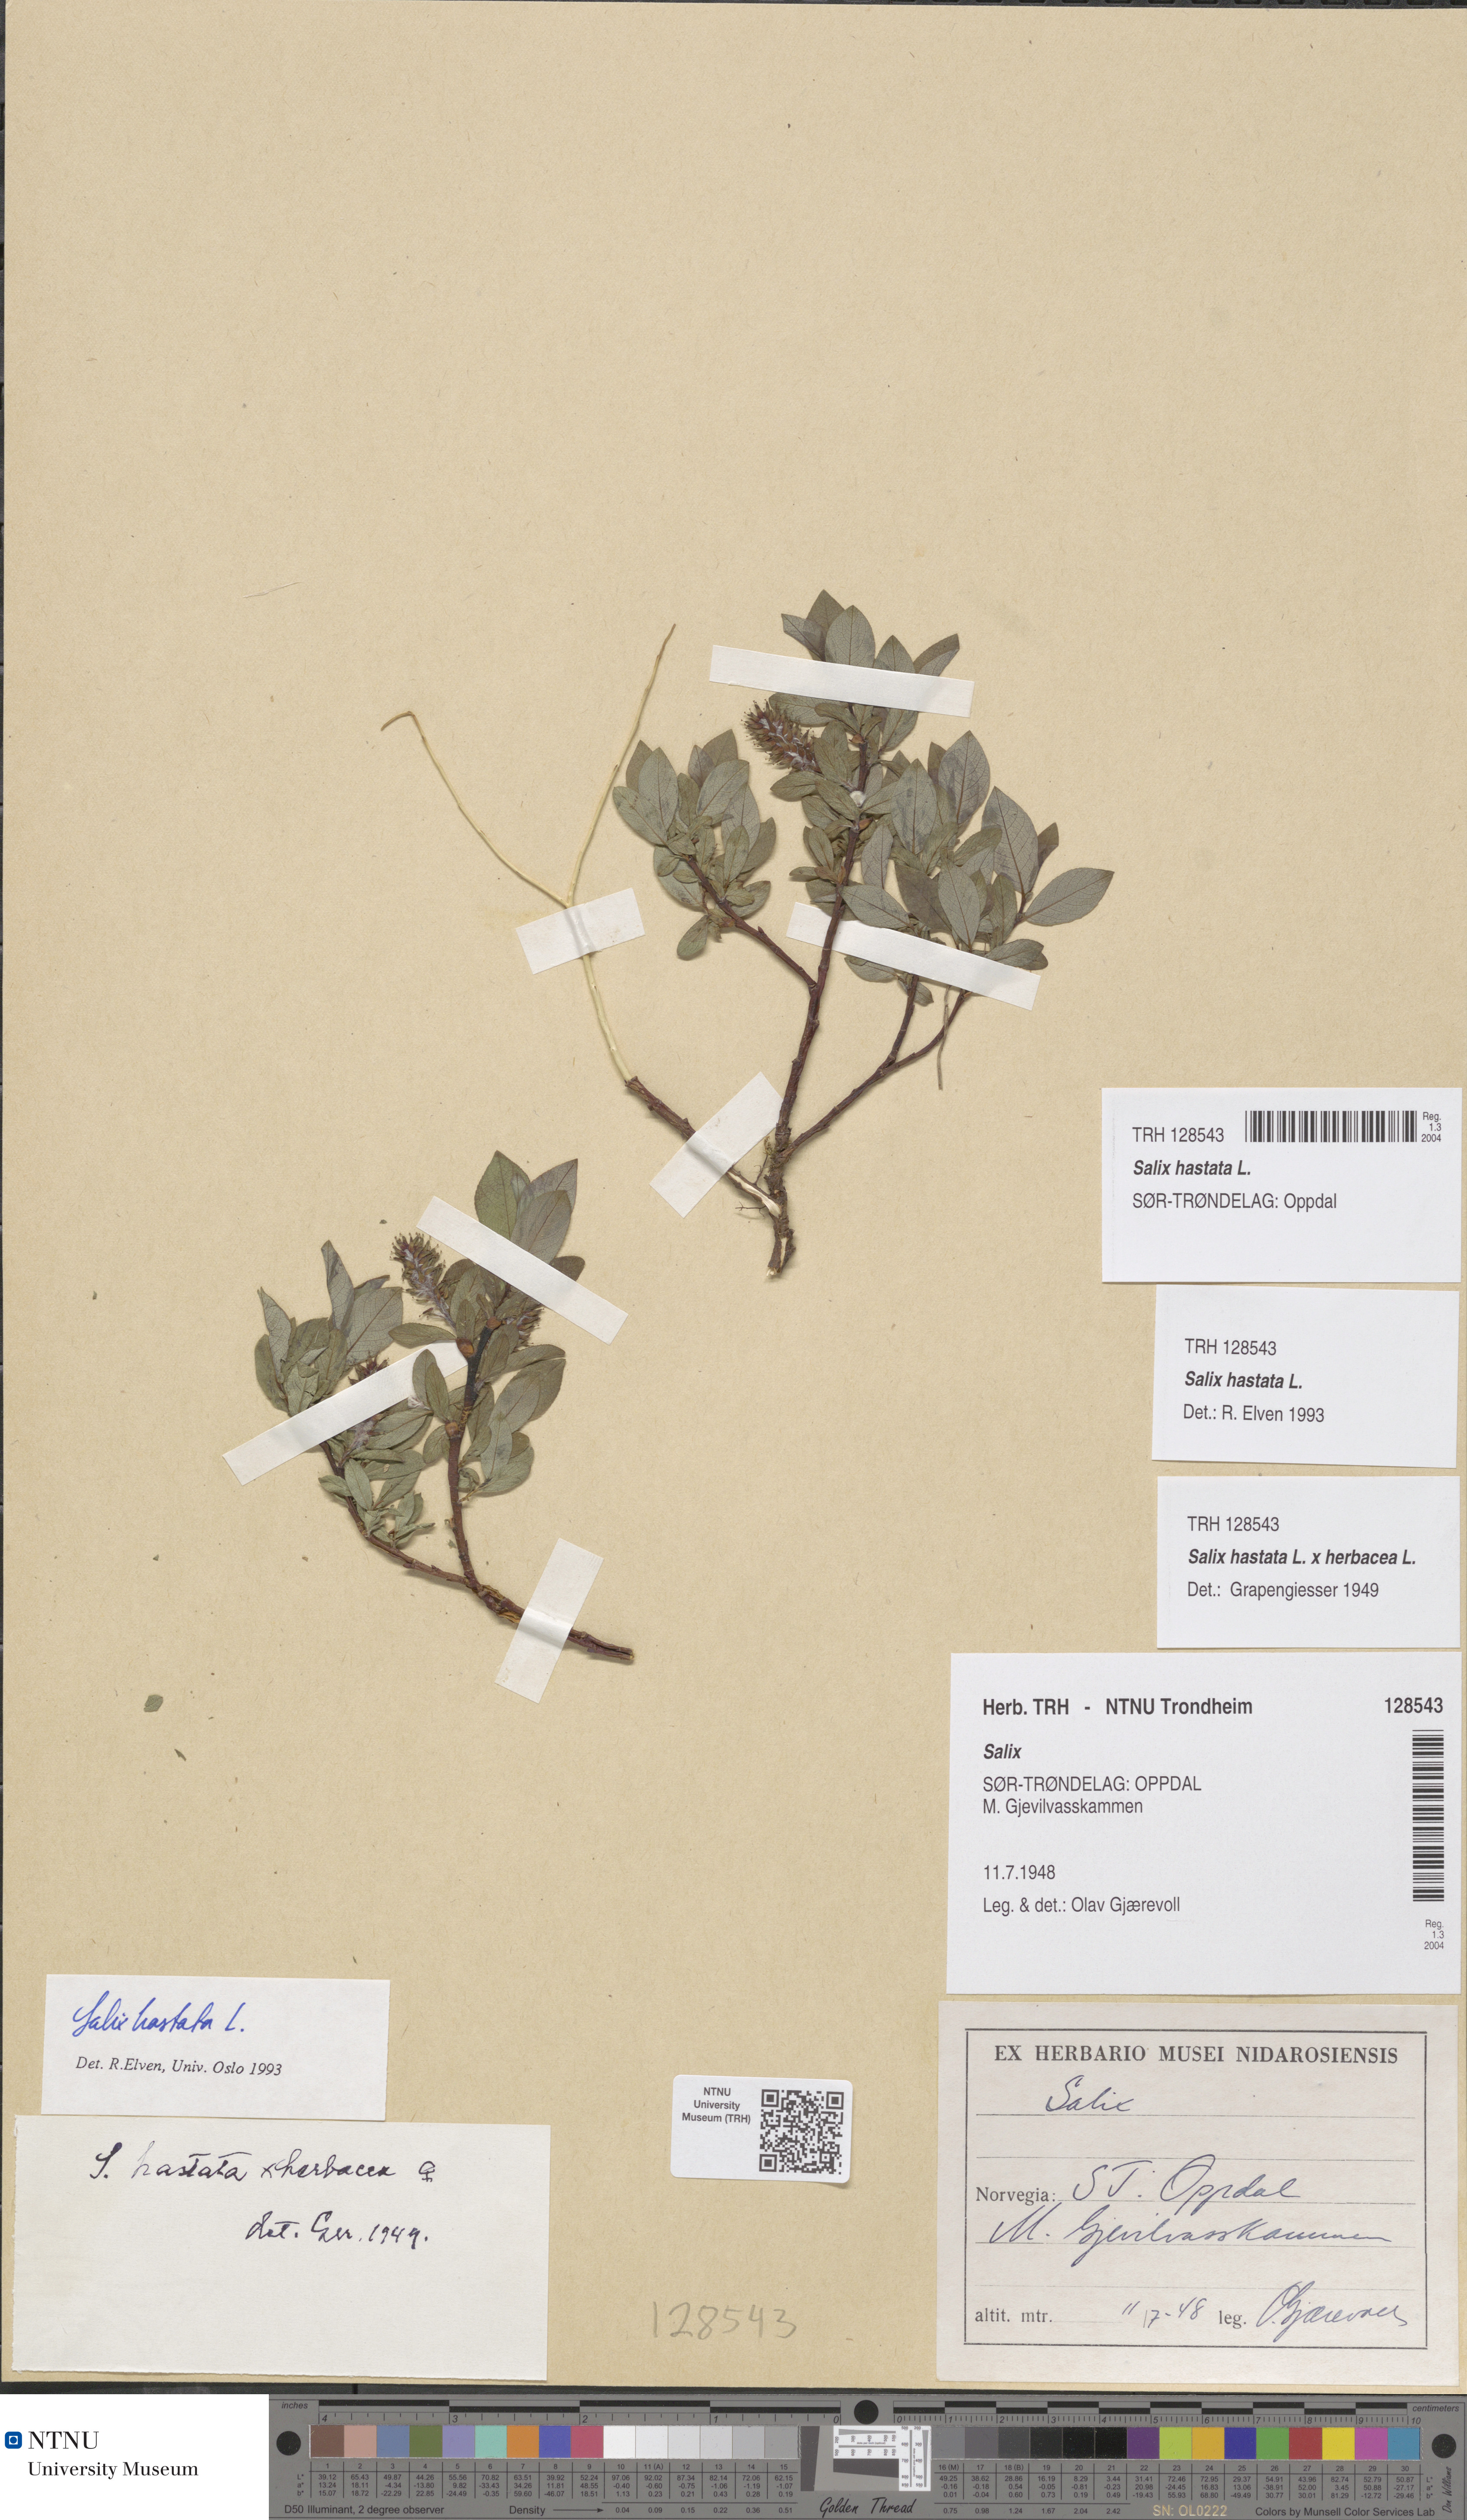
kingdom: Plantae
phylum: Tracheophyta
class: Magnoliopsida
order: Malpighiales
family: Salicaceae
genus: Salix
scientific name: Salix hastata
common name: Halberd willow
